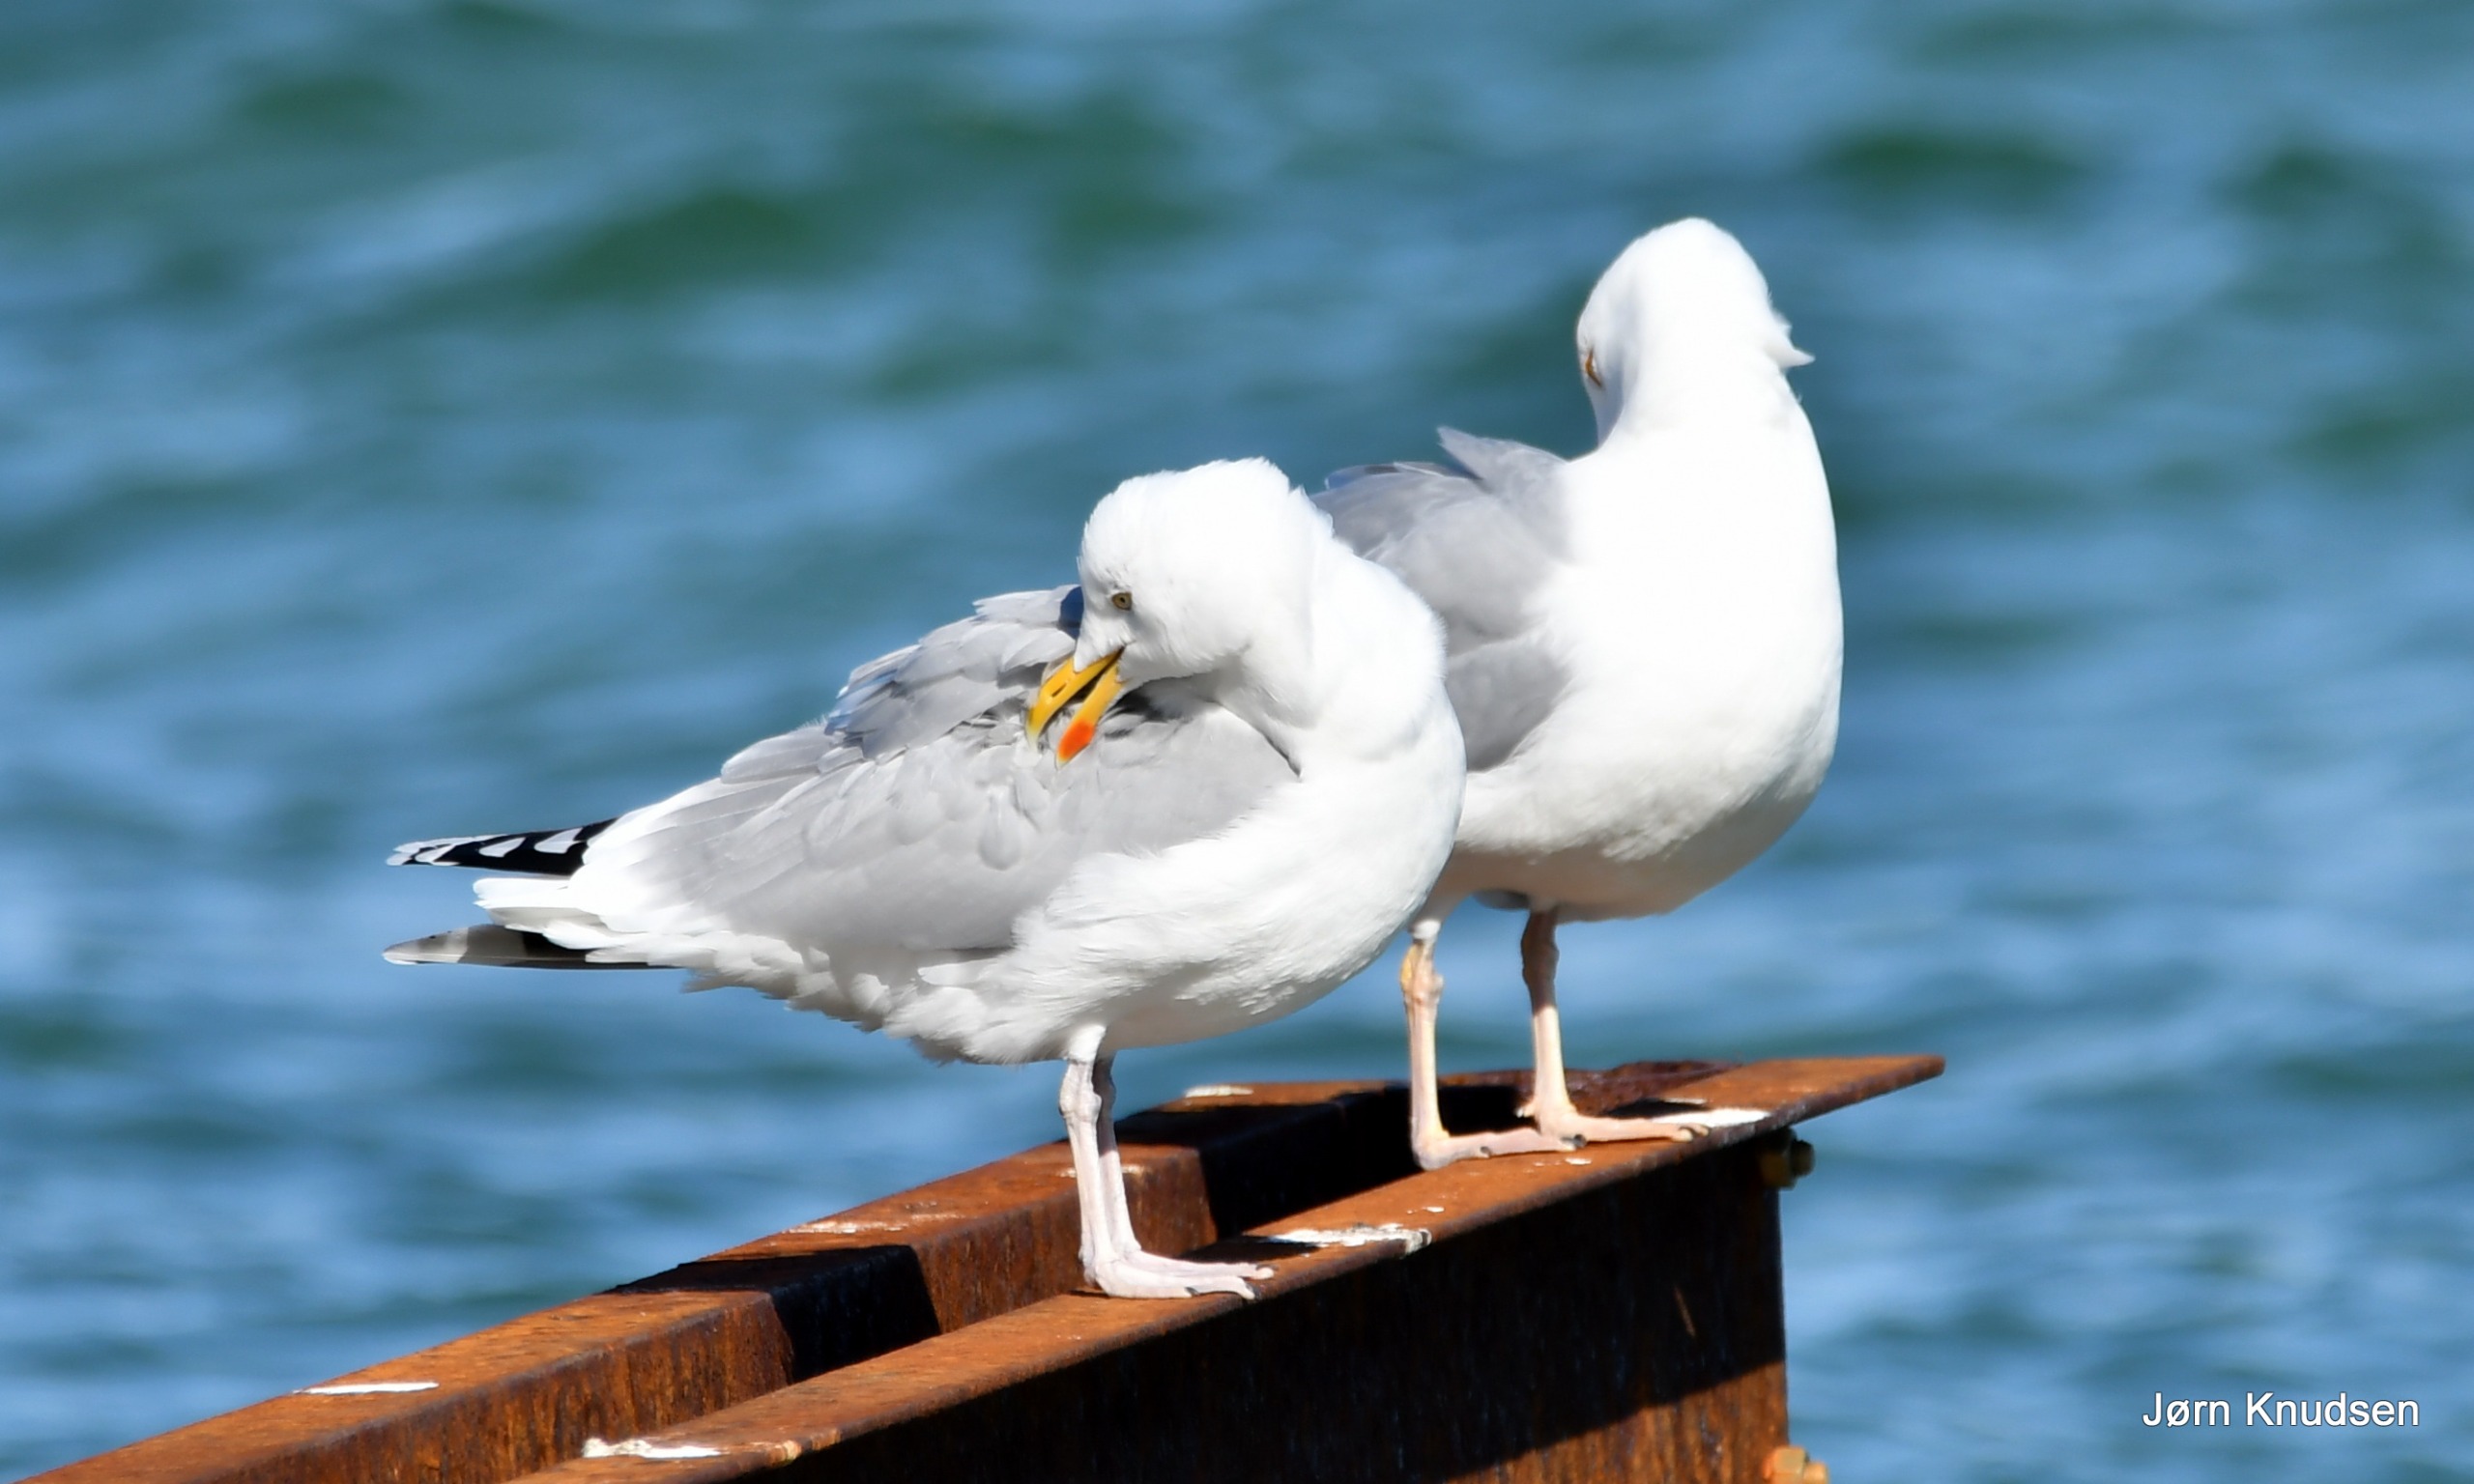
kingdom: Animalia
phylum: Chordata
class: Aves
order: Charadriiformes
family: Laridae
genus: Larus
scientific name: Larus argentatus
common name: Sølvmåge
